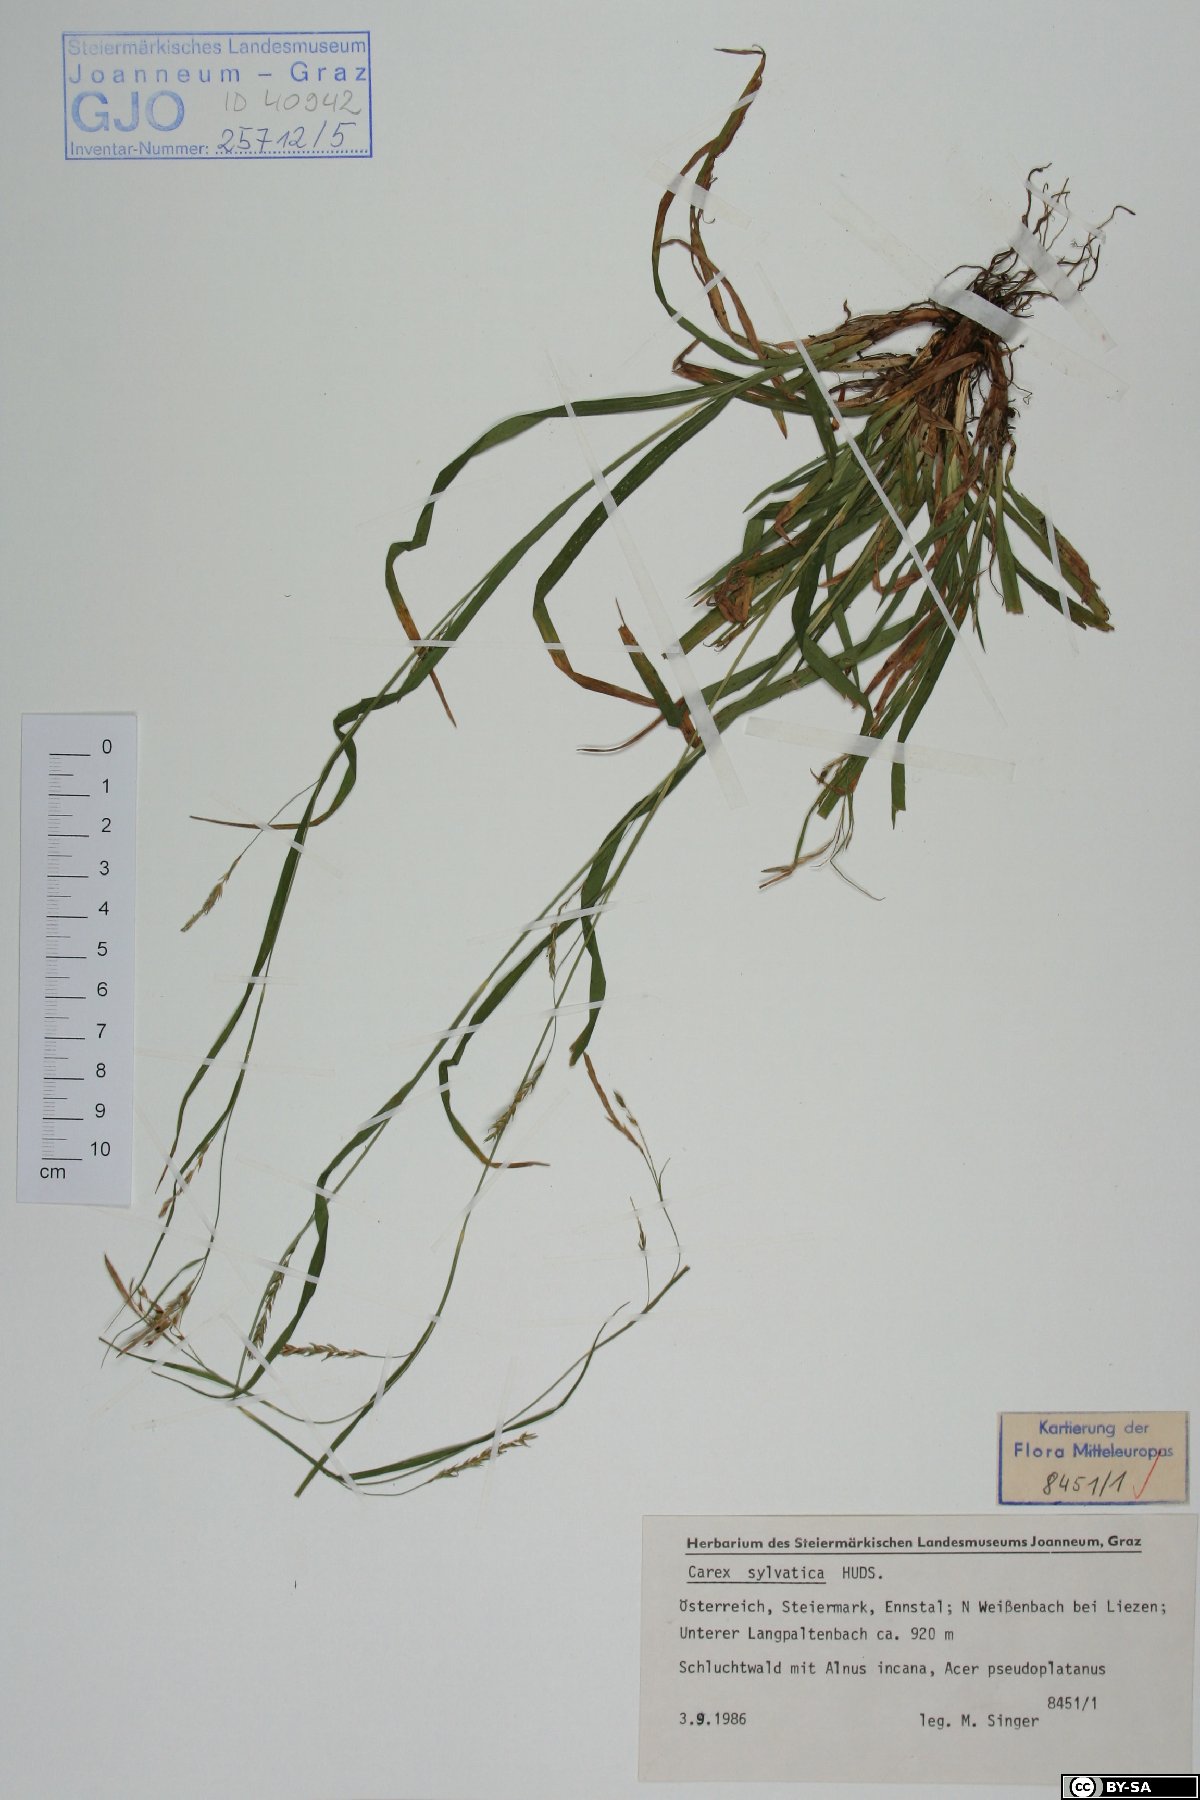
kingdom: Plantae
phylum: Tracheophyta
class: Liliopsida
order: Poales
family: Cyperaceae
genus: Carex
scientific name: Carex sylvatica
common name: Wood-sedge
